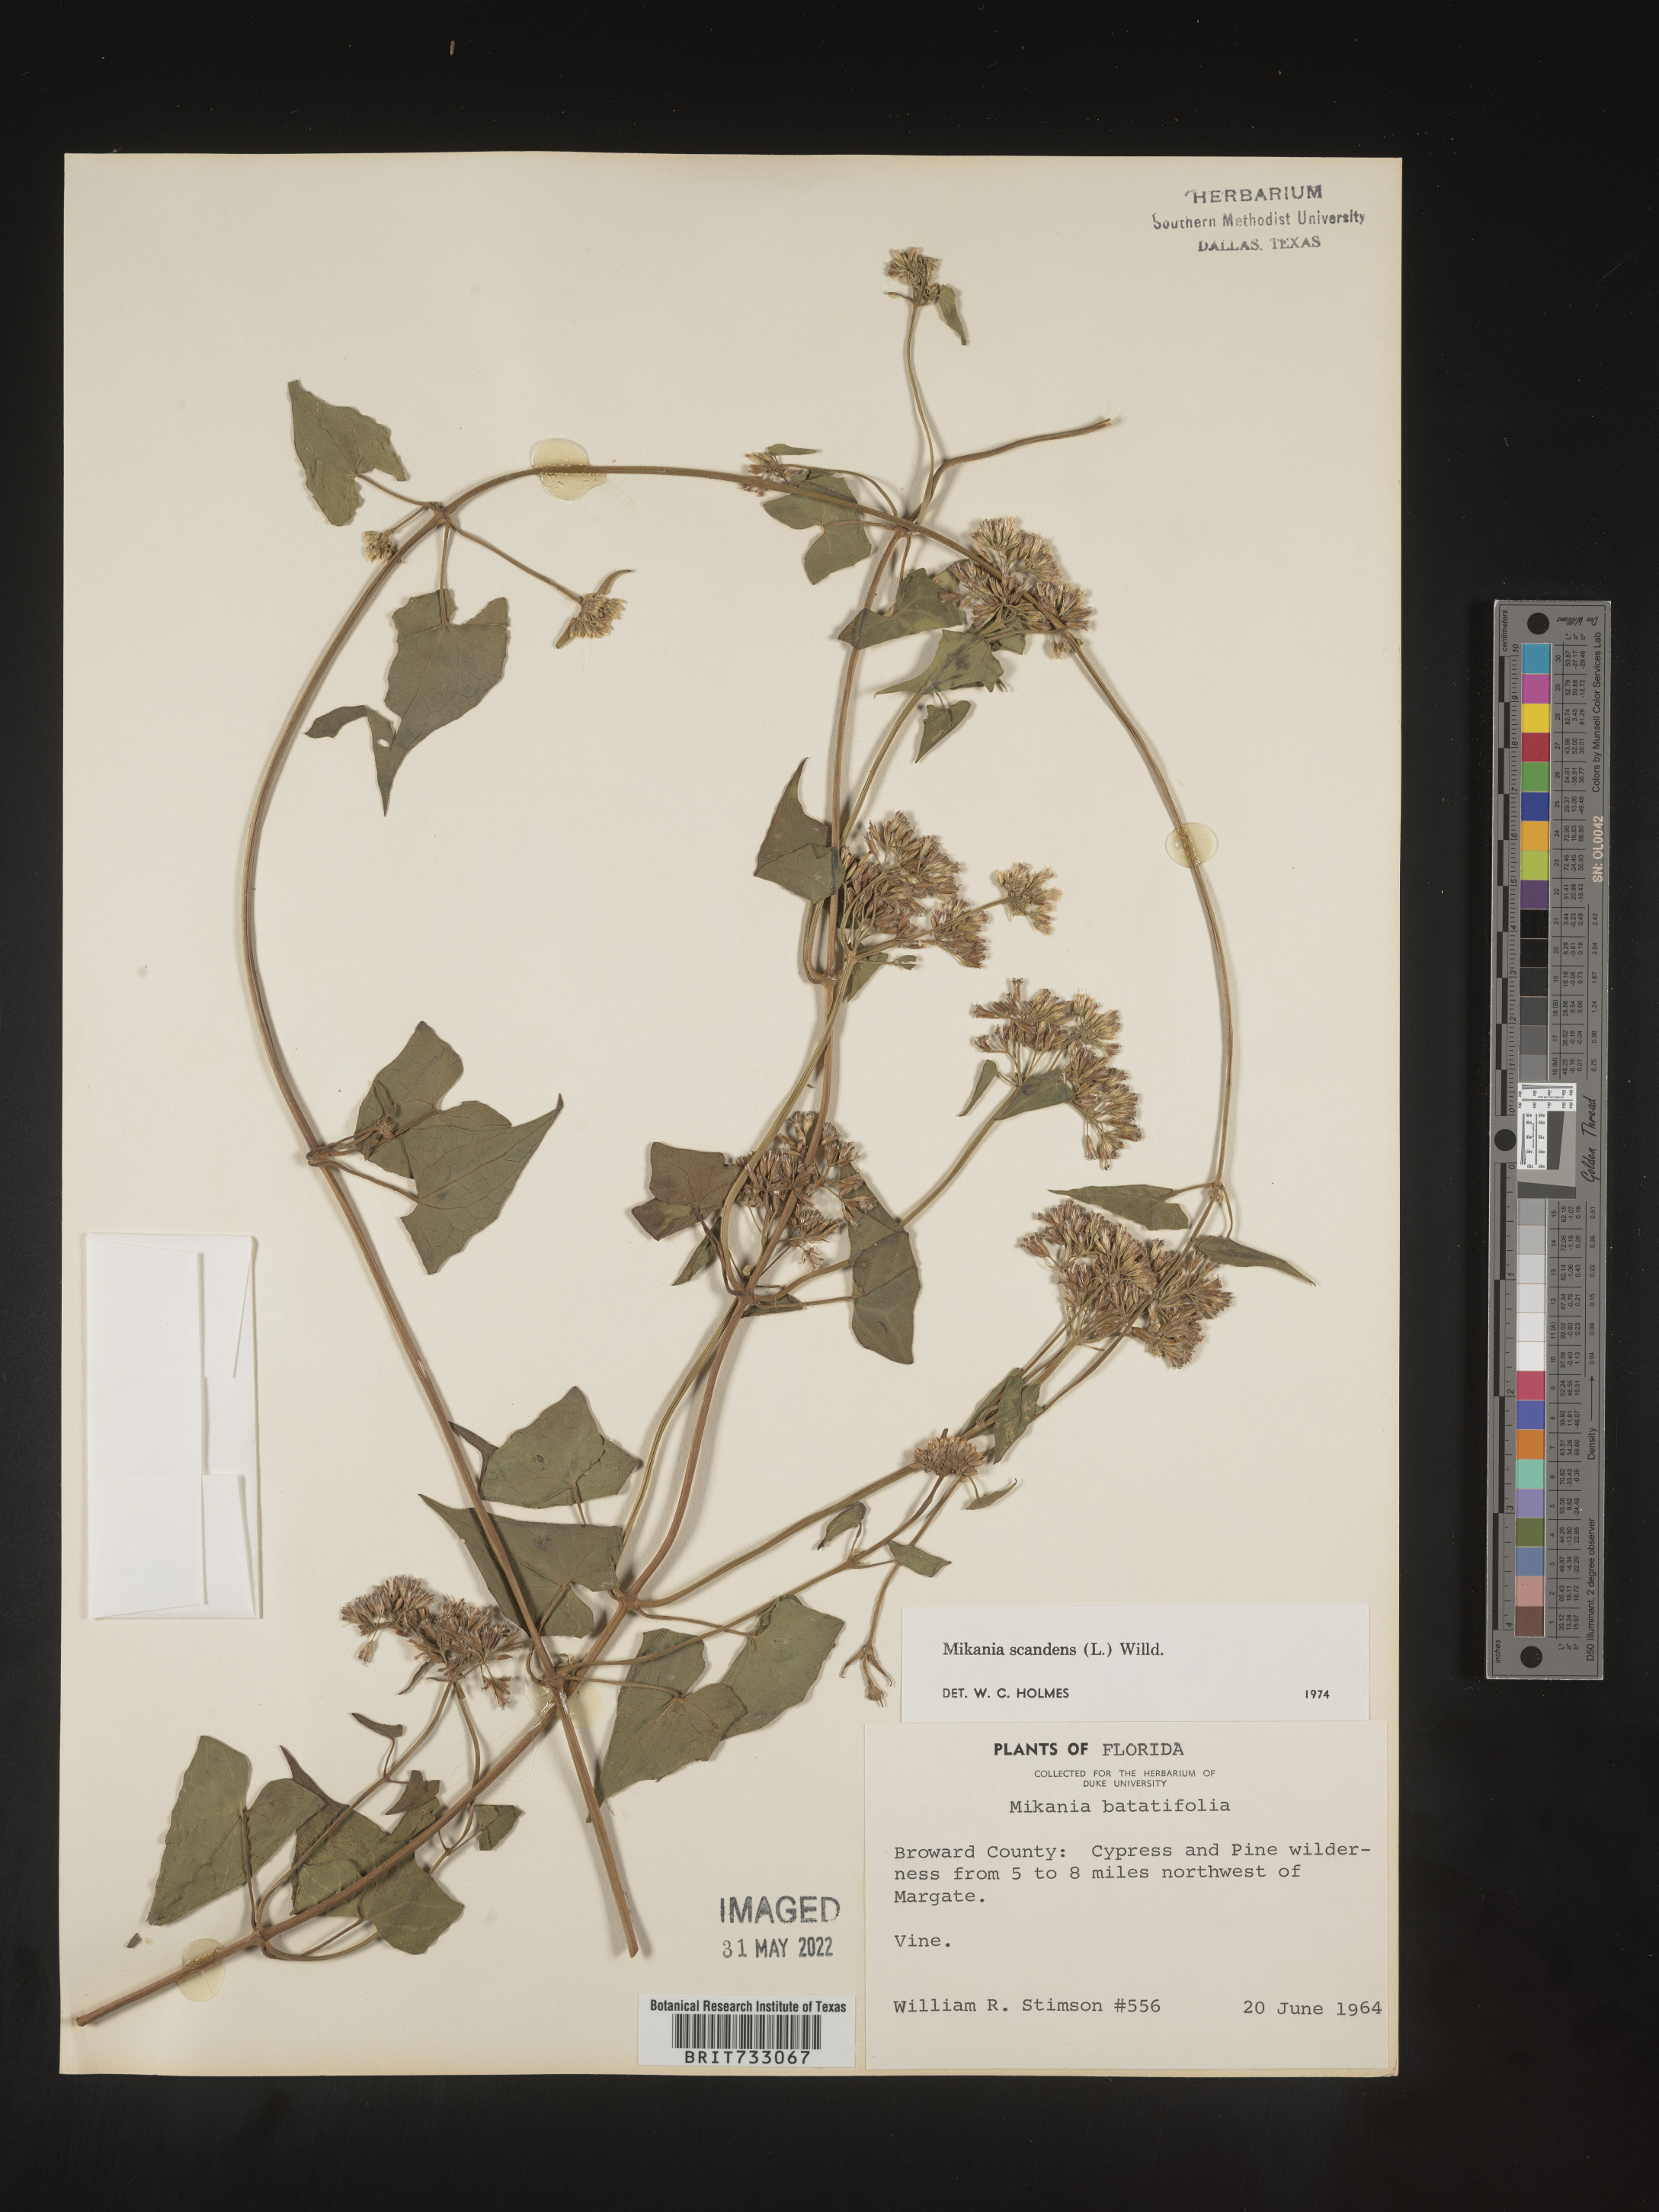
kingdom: Plantae
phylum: Tracheophyta
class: Magnoliopsida
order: Asterales
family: Asteraceae
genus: Mikania
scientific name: Mikania scandens
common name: Climbing hempvine
